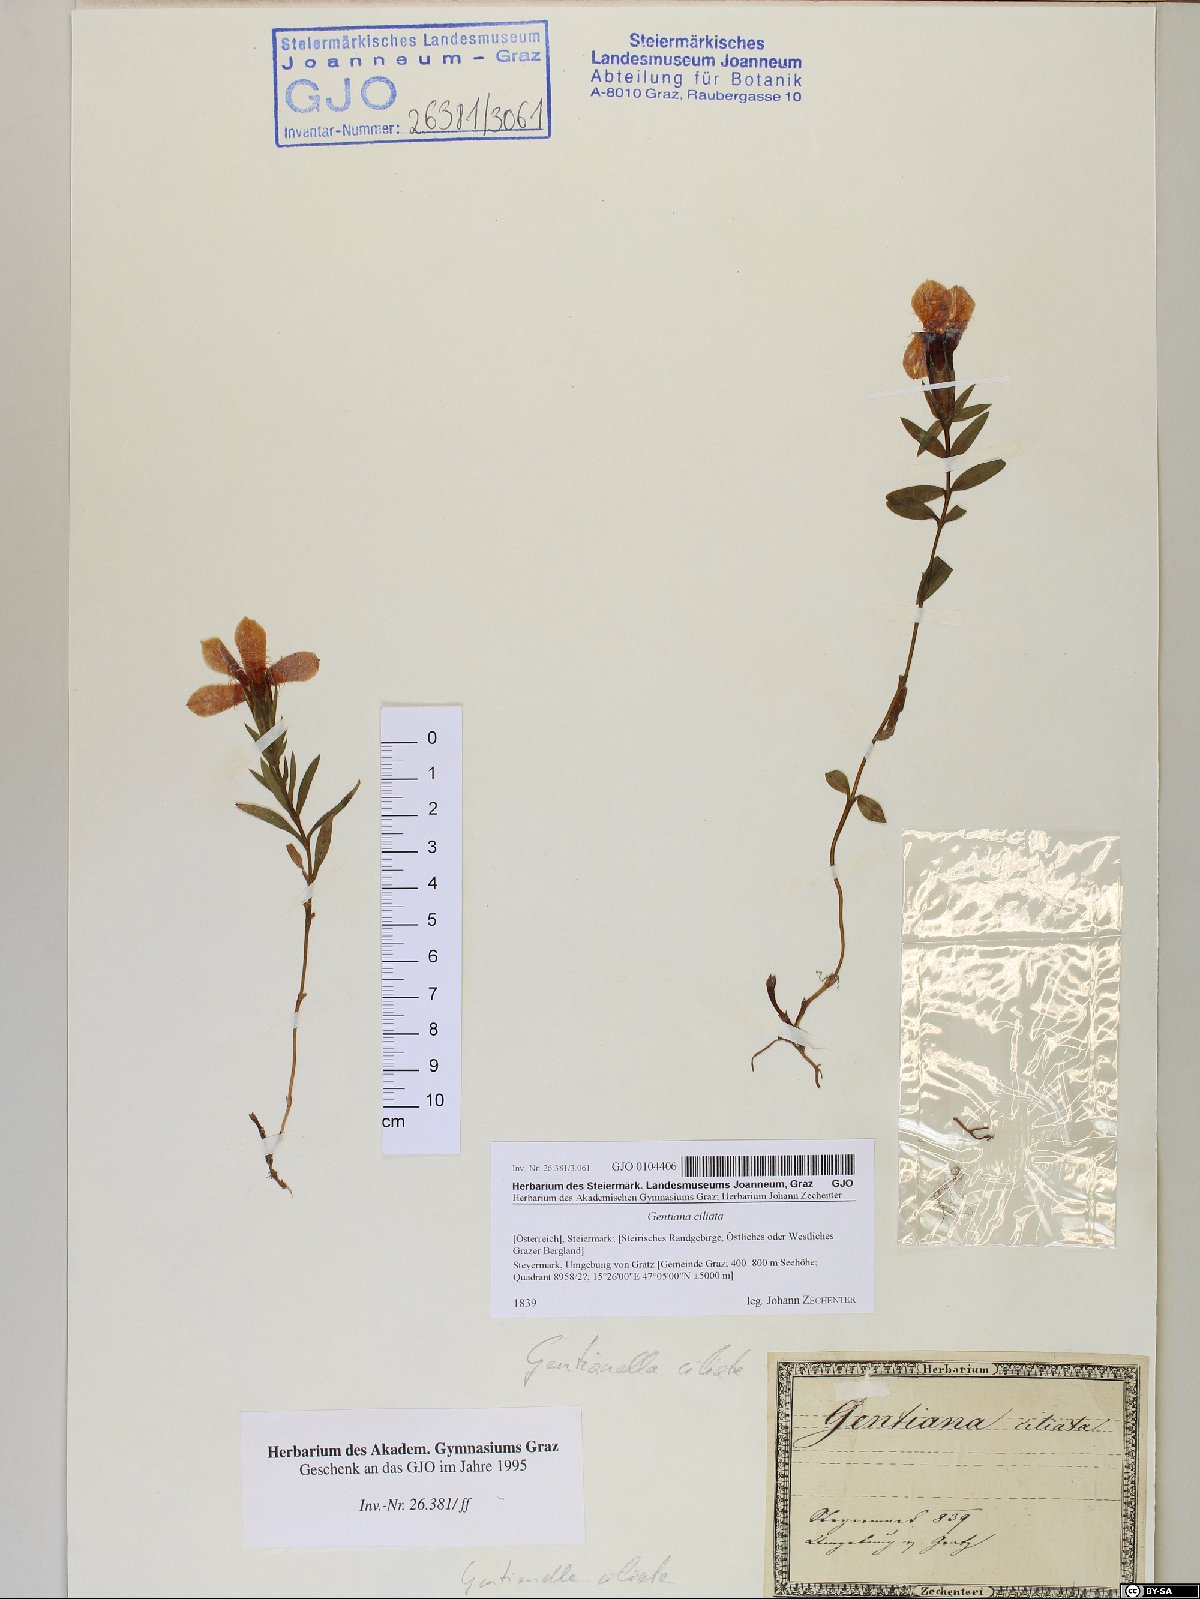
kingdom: Plantae
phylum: Tracheophyta
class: Magnoliopsida
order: Gentianales
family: Gentianaceae
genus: Gentianopsis
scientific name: Gentianopsis ciliata
